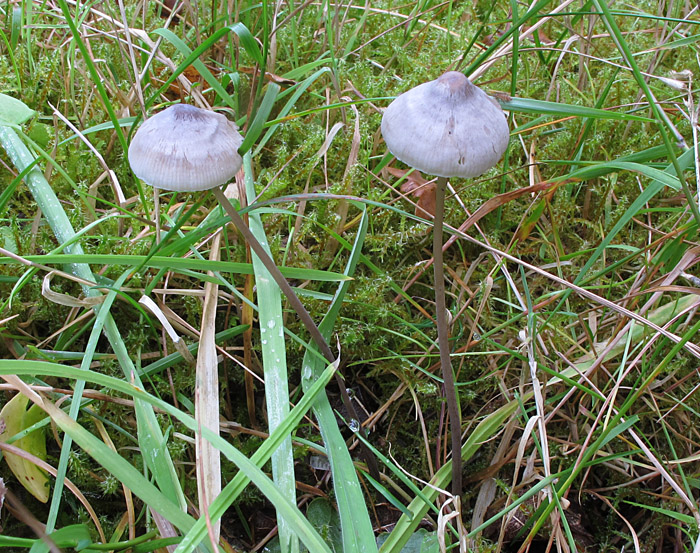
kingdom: Fungi
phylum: Basidiomycota
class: Agaricomycetes
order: Agaricales
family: Mycenaceae
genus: Mycena
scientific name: Mycena filopes
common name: jod-huesvamp
